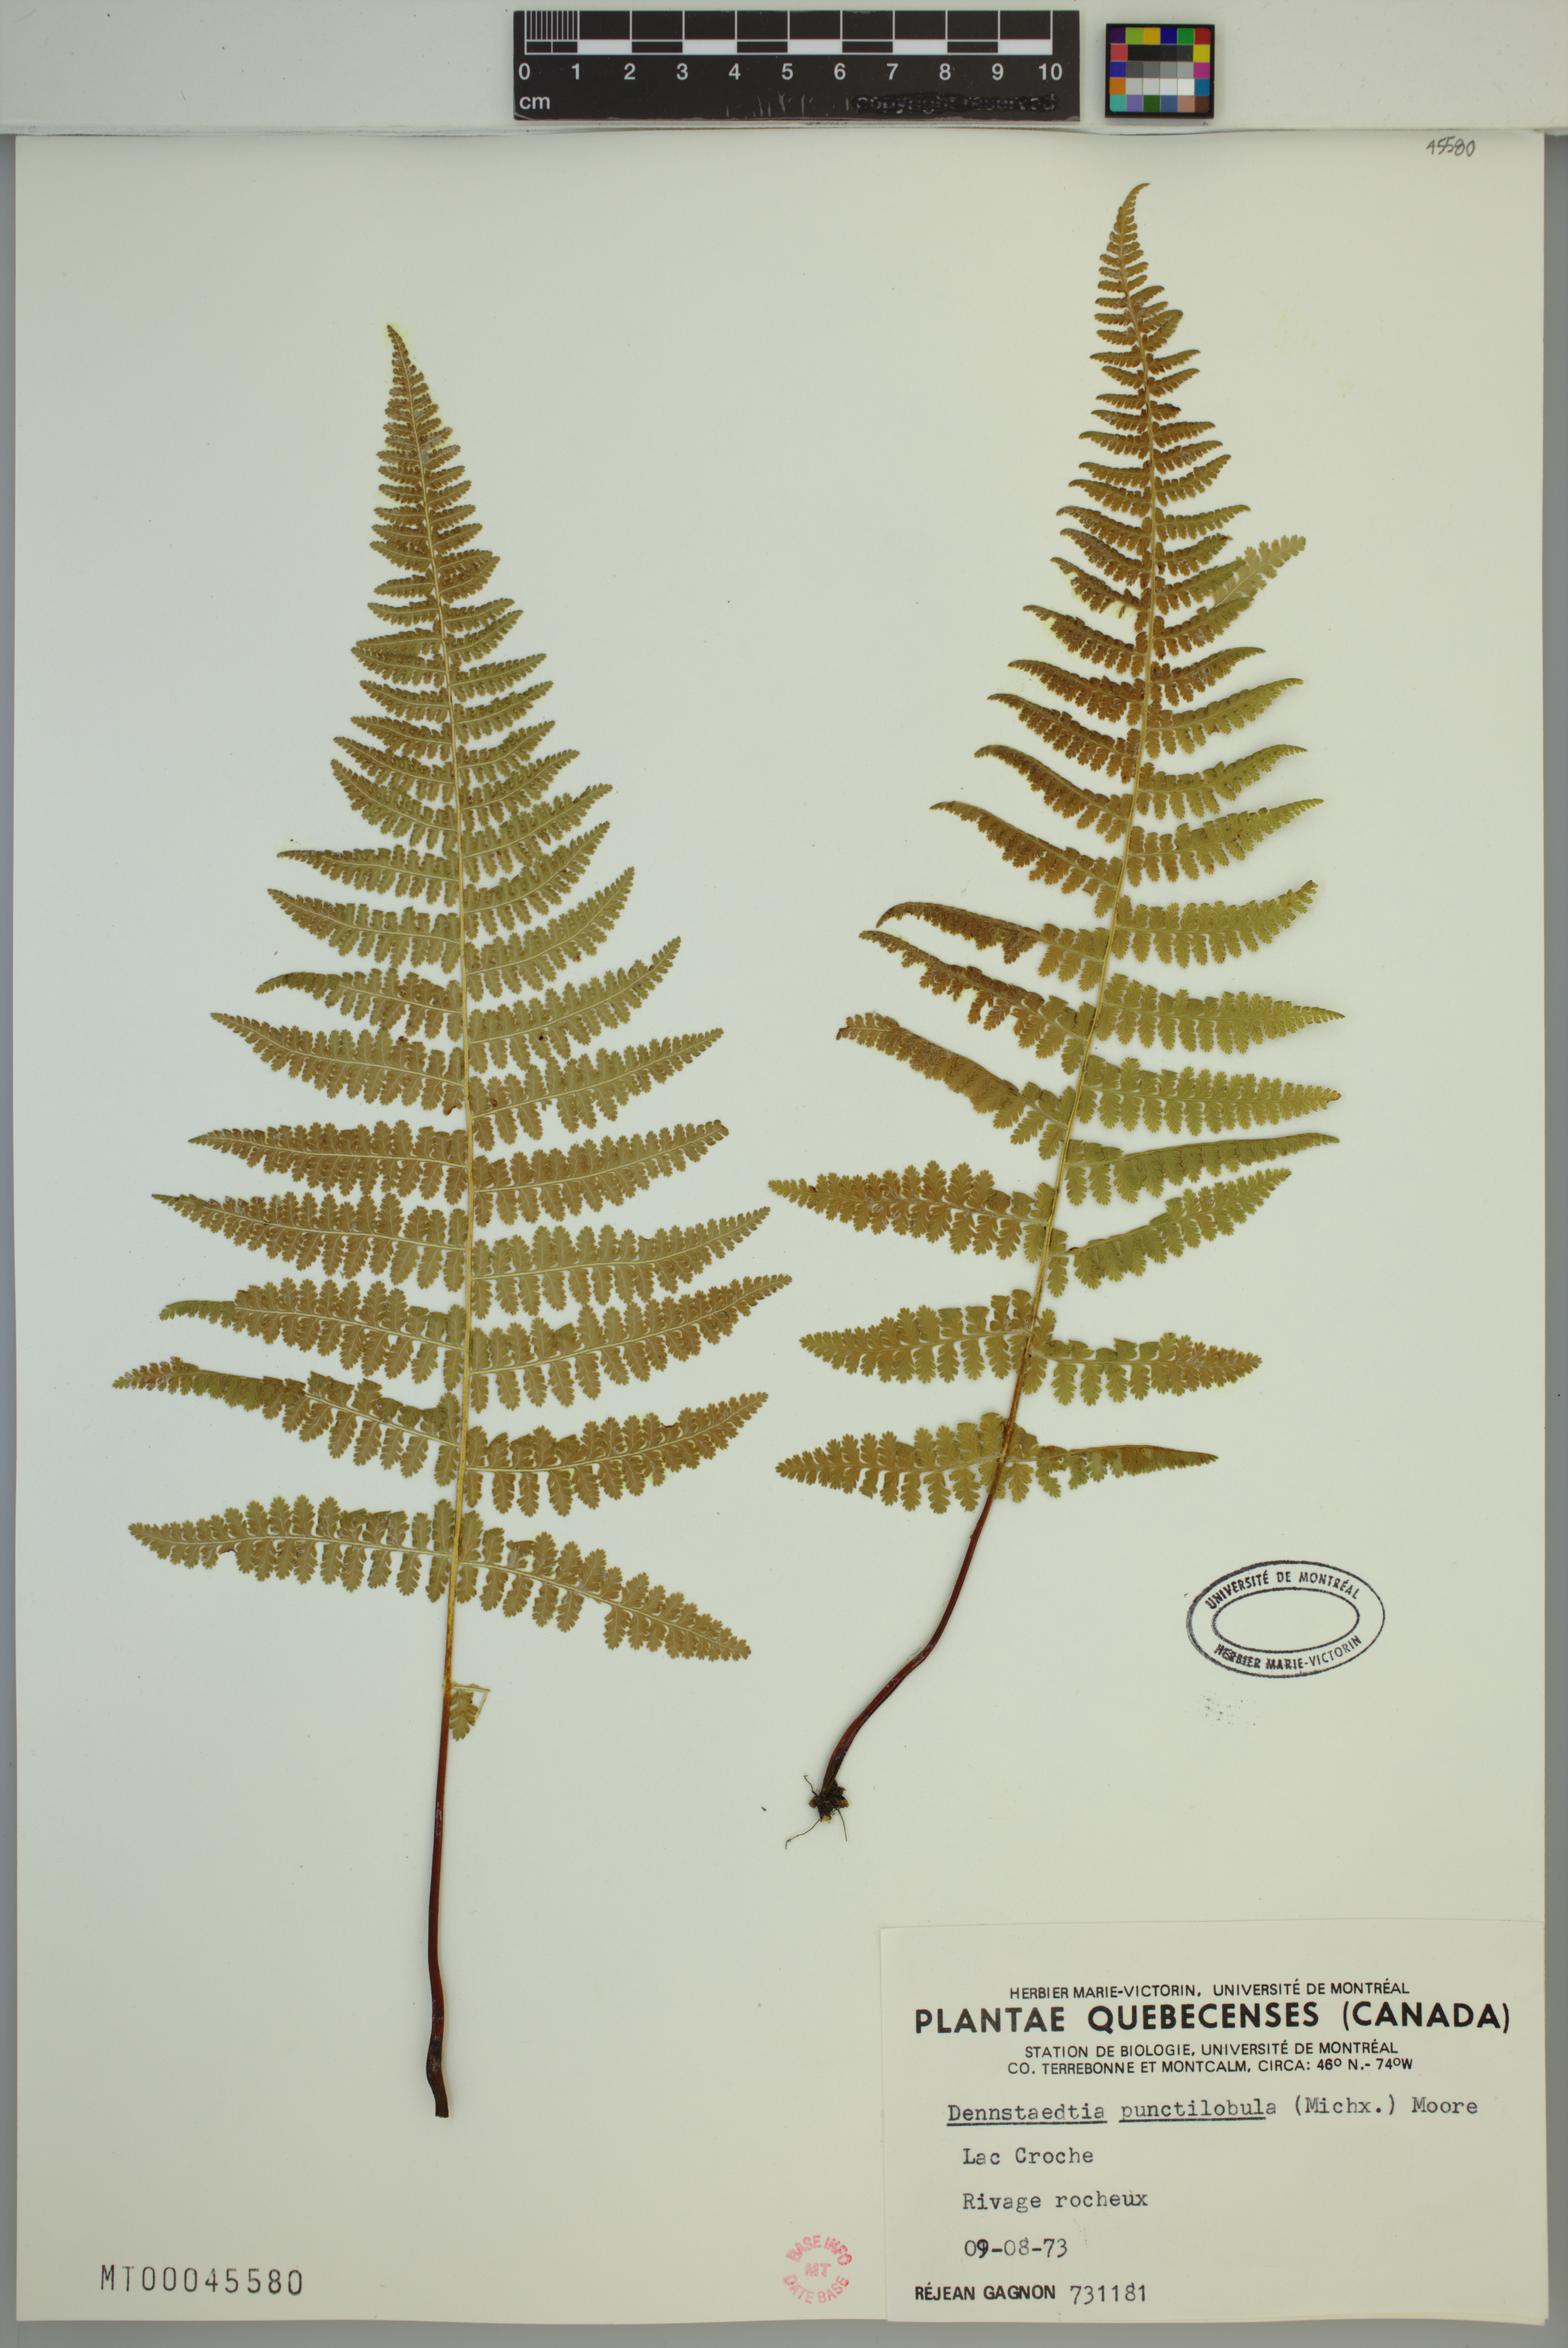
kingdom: Plantae
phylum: Tracheophyta
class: Polypodiopsida
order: Polypodiales
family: Dennstaedtiaceae
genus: Sitobolium
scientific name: Sitobolium punctilobum
